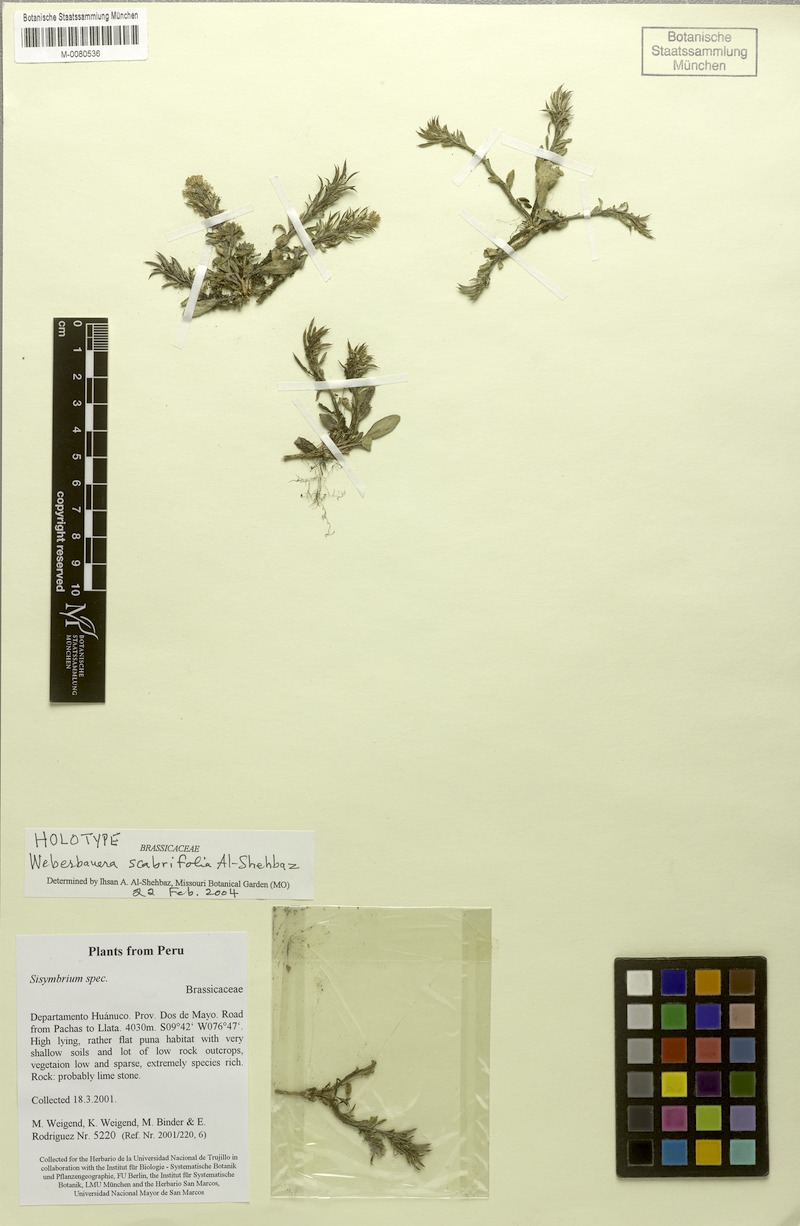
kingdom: Plantae
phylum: Tracheophyta
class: Magnoliopsida
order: Brassicales
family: Brassicaceae
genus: Weberbauera
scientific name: Weberbauera scabrifolia
